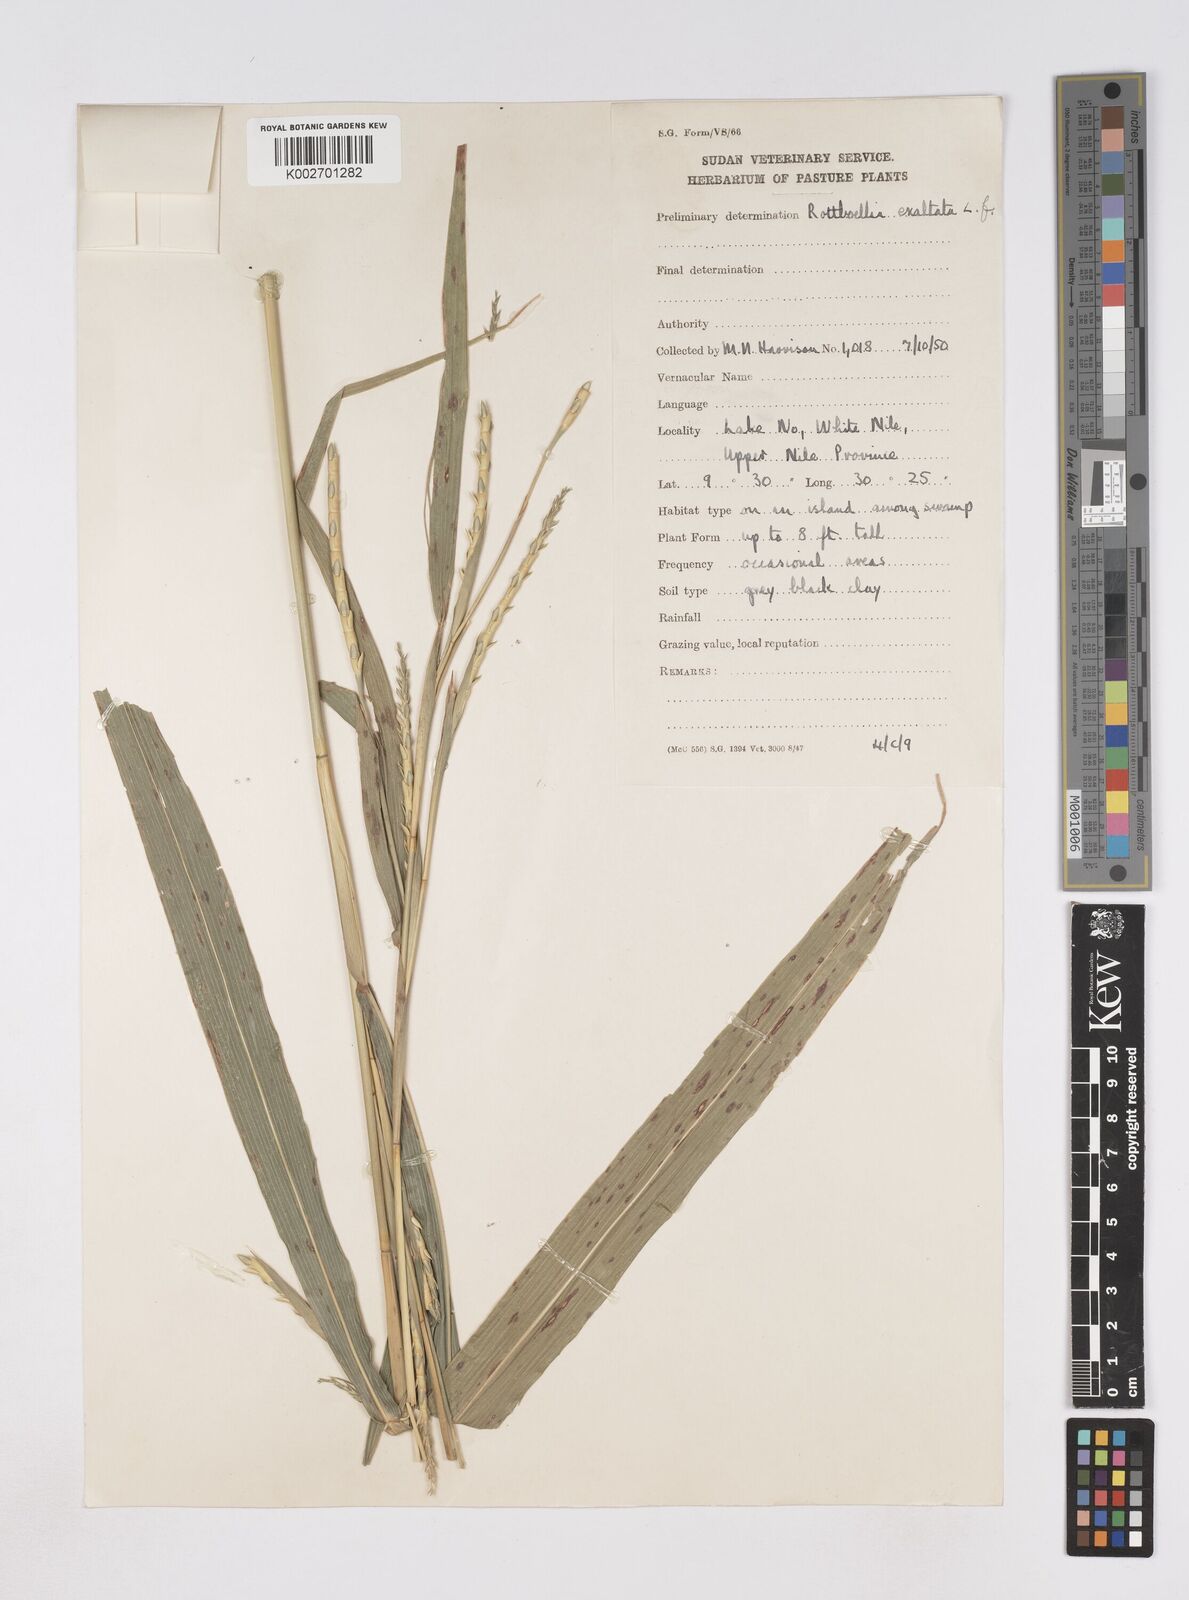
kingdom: Plantae
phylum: Tracheophyta
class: Liliopsida
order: Poales
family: Poaceae
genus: Rottboellia
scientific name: Rottboellia cochinchinensis
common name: Itchgrass
